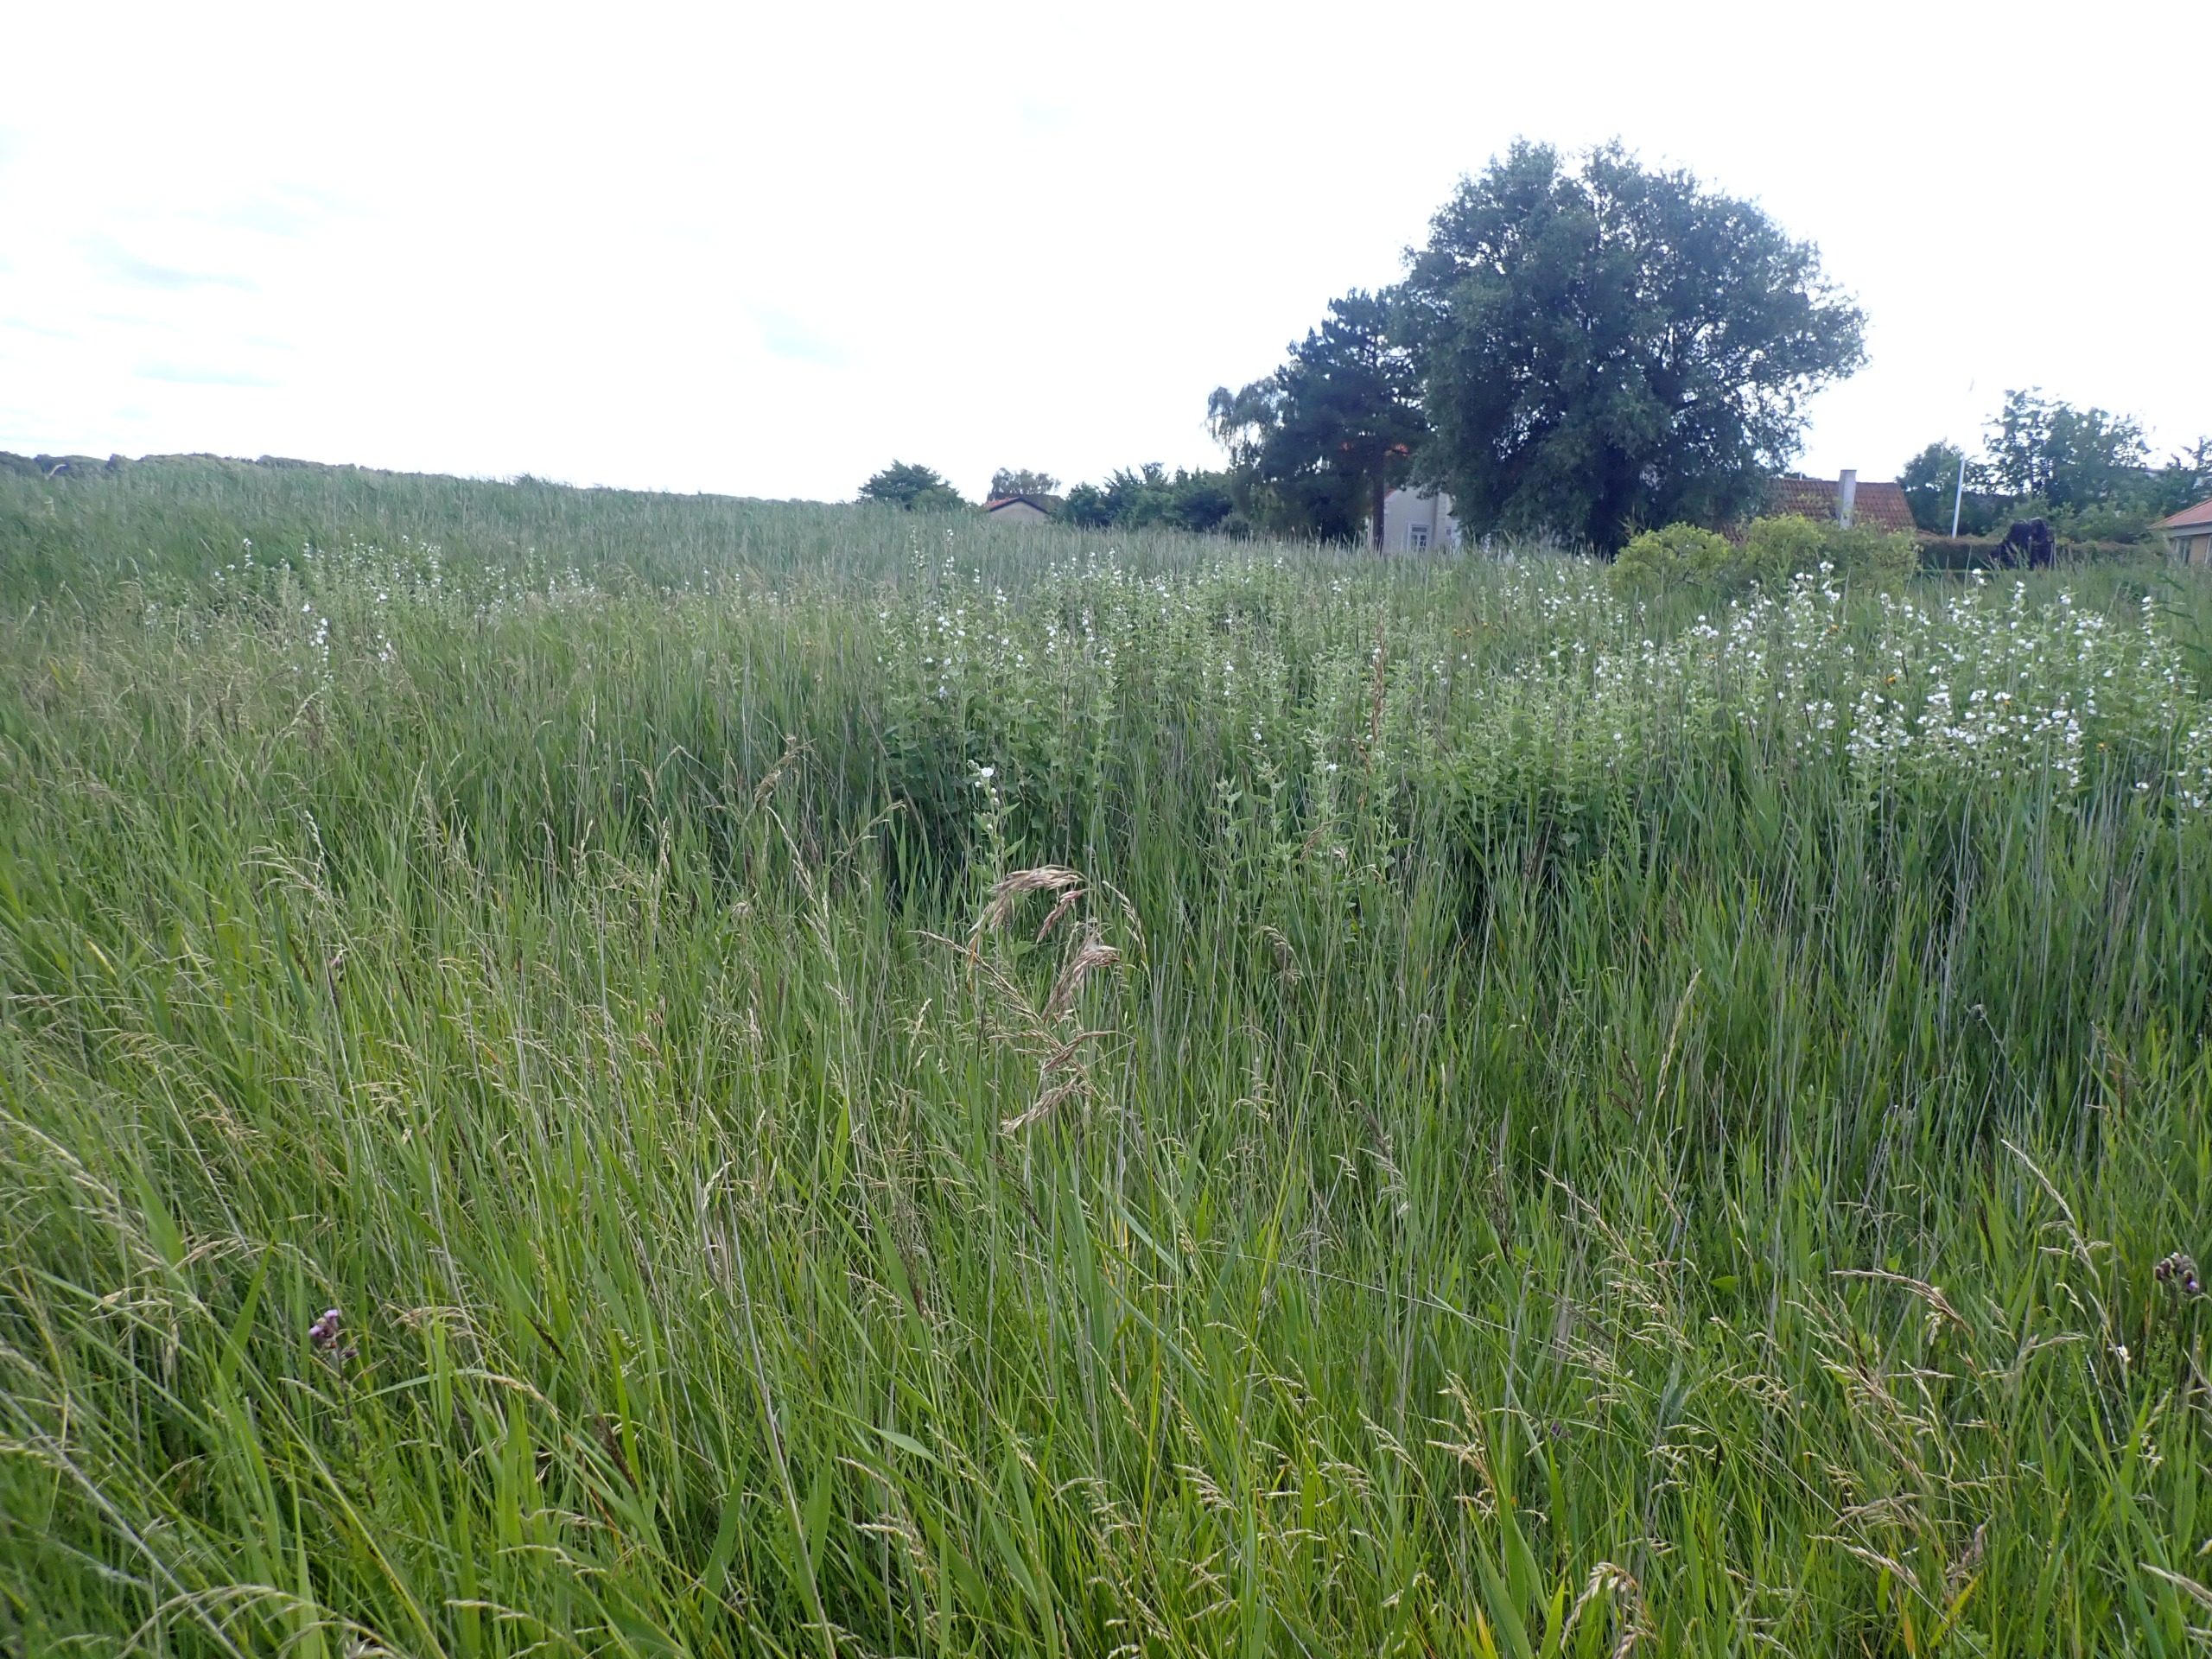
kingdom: Plantae
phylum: Tracheophyta
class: Magnoliopsida
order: Malvales
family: Malvaceae
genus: Althaea
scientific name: Althaea officinalis
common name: Lægestokrose
